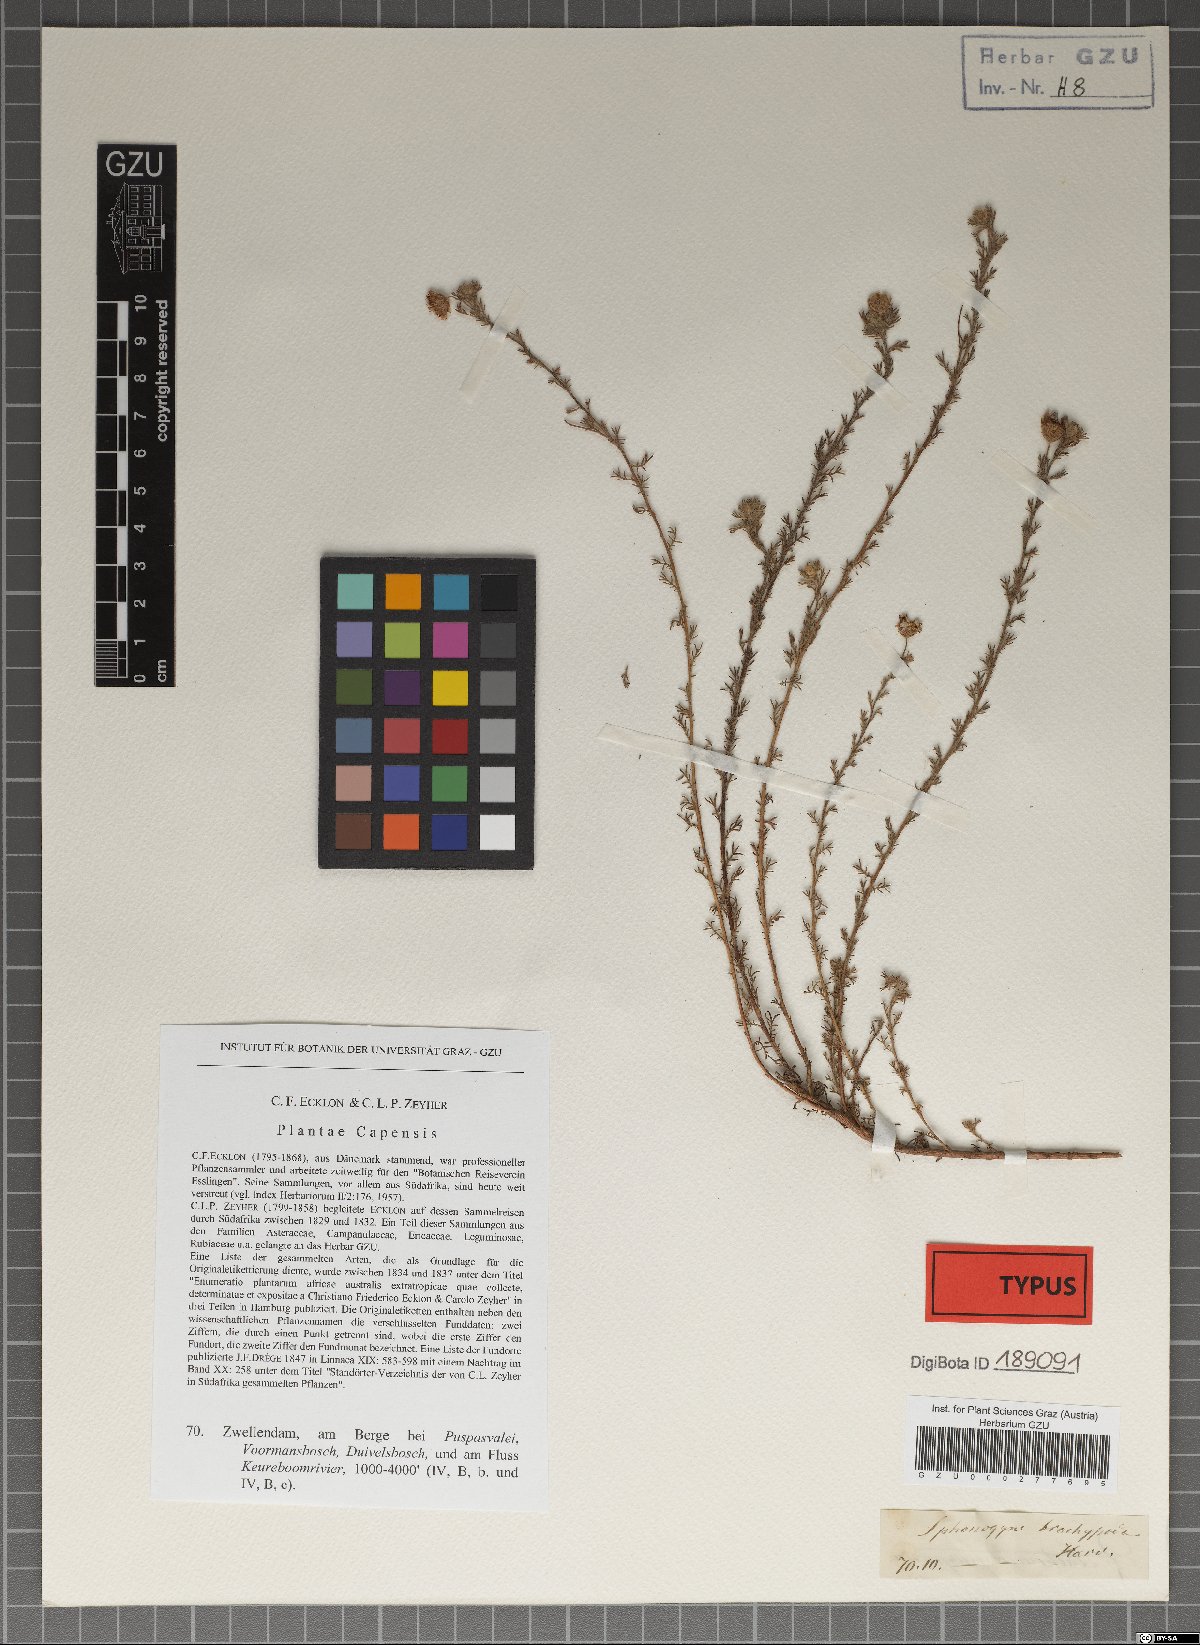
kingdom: Plantae
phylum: Tracheophyta
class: Magnoliopsida
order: Asterales
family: Asteraceae
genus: Ursinia
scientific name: Ursinia hispida
